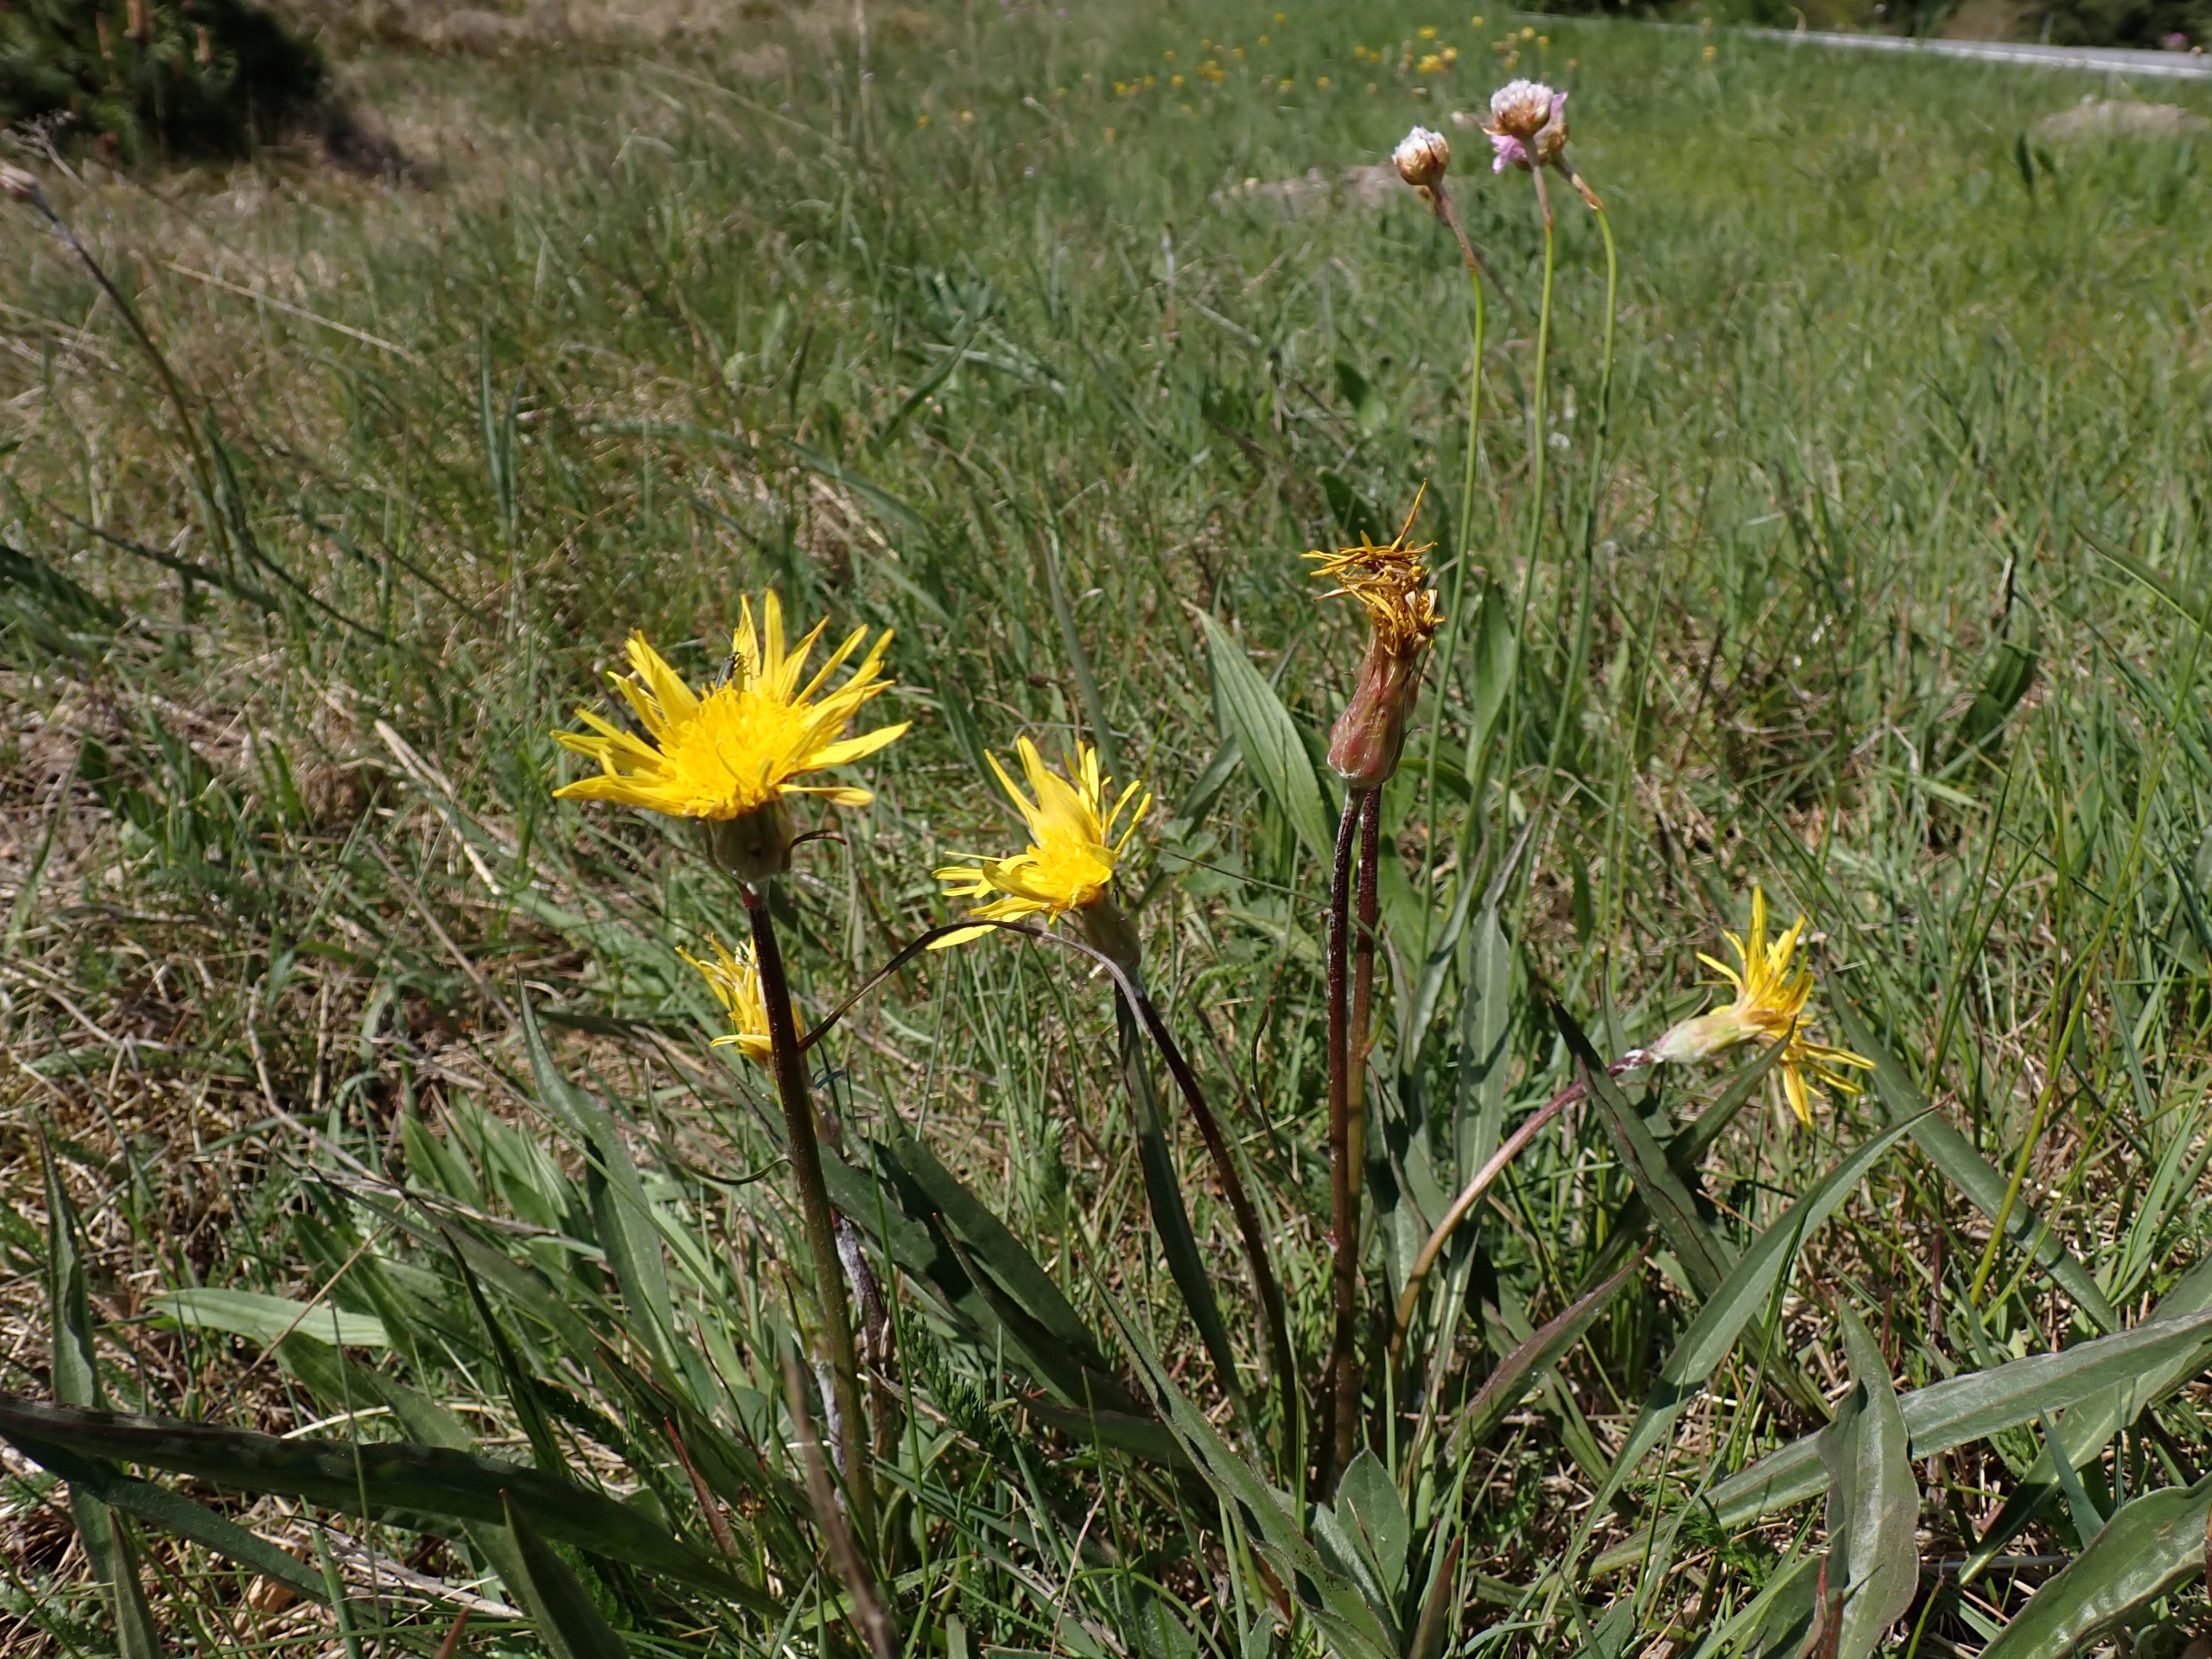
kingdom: Plantae
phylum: Tracheophyta
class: Magnoliopsida
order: Asterales
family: Asteraceae
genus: Scorzonera
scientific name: Scorzonera humilis
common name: Lav skorsoner
